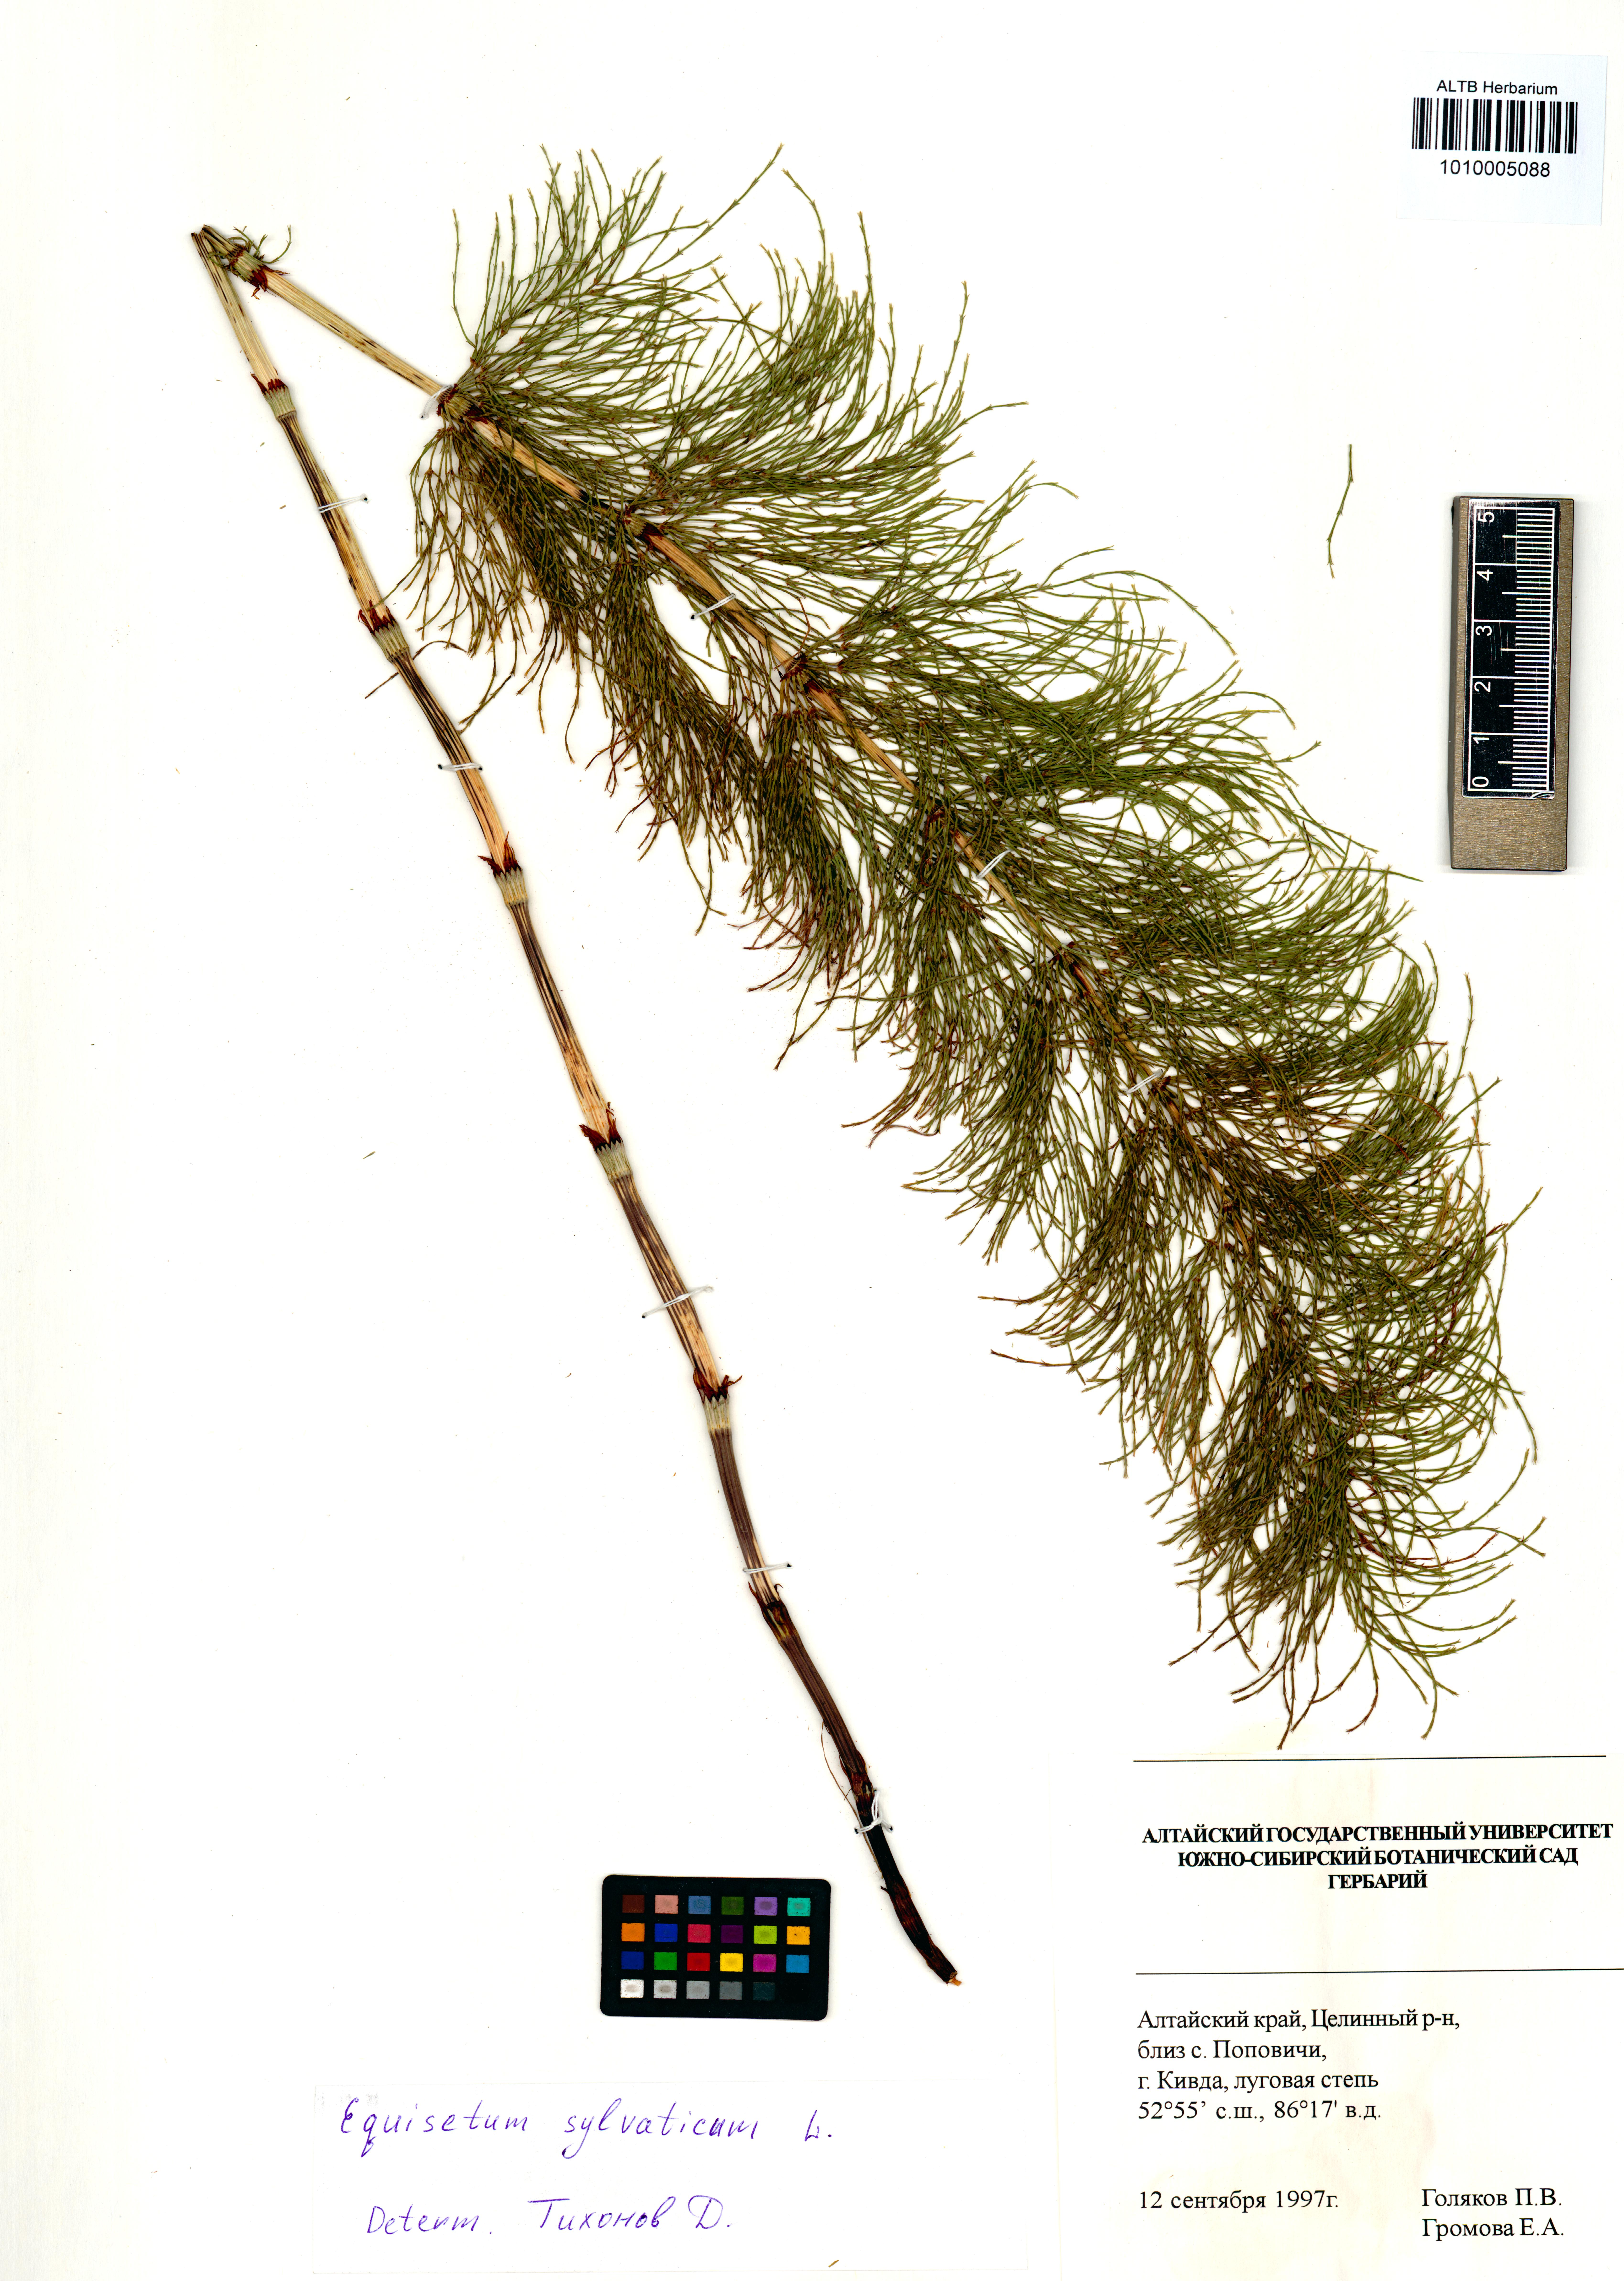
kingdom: Plantae
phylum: Tracheophyta
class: Polypodiopsida
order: Equisetales
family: Equisetaceae
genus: Equisetum
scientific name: Equisetum sylvaticum
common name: Wood horsetail
